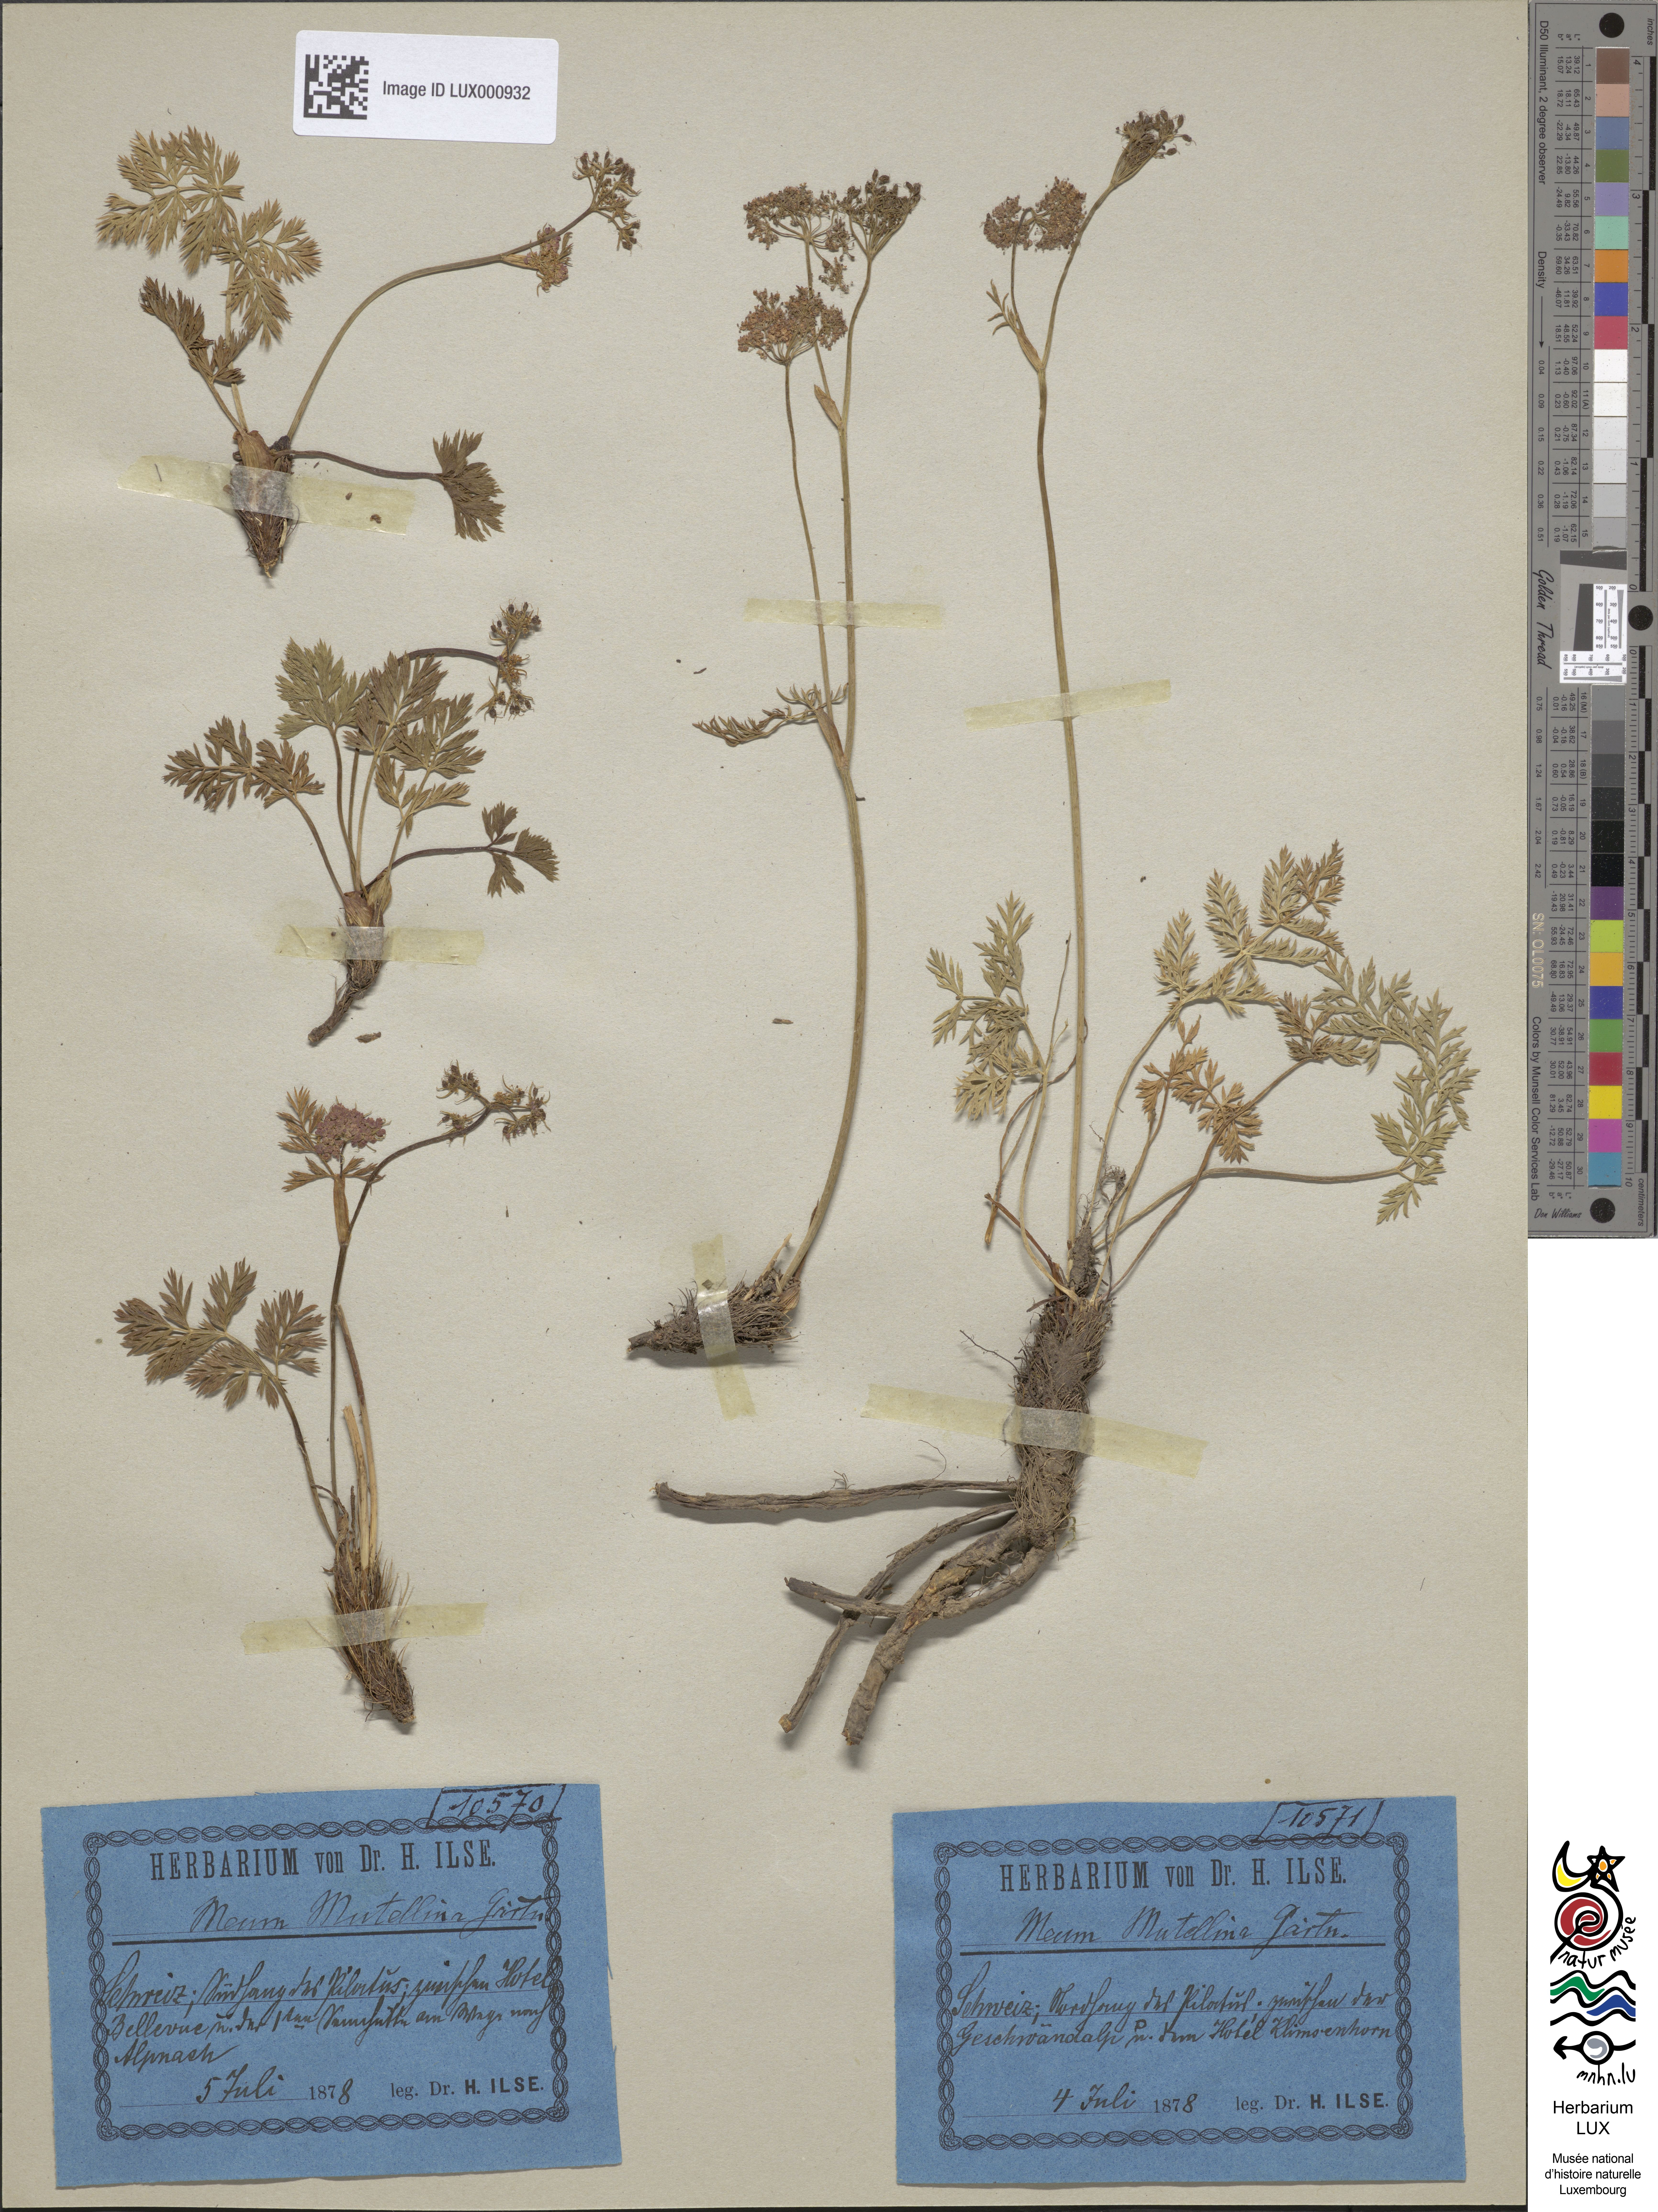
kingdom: Plantae
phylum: Tracheophyta
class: Magnoliopsida
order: Apiales
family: Apiaceae
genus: Mutellina
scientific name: Mutellina adonidifolia
